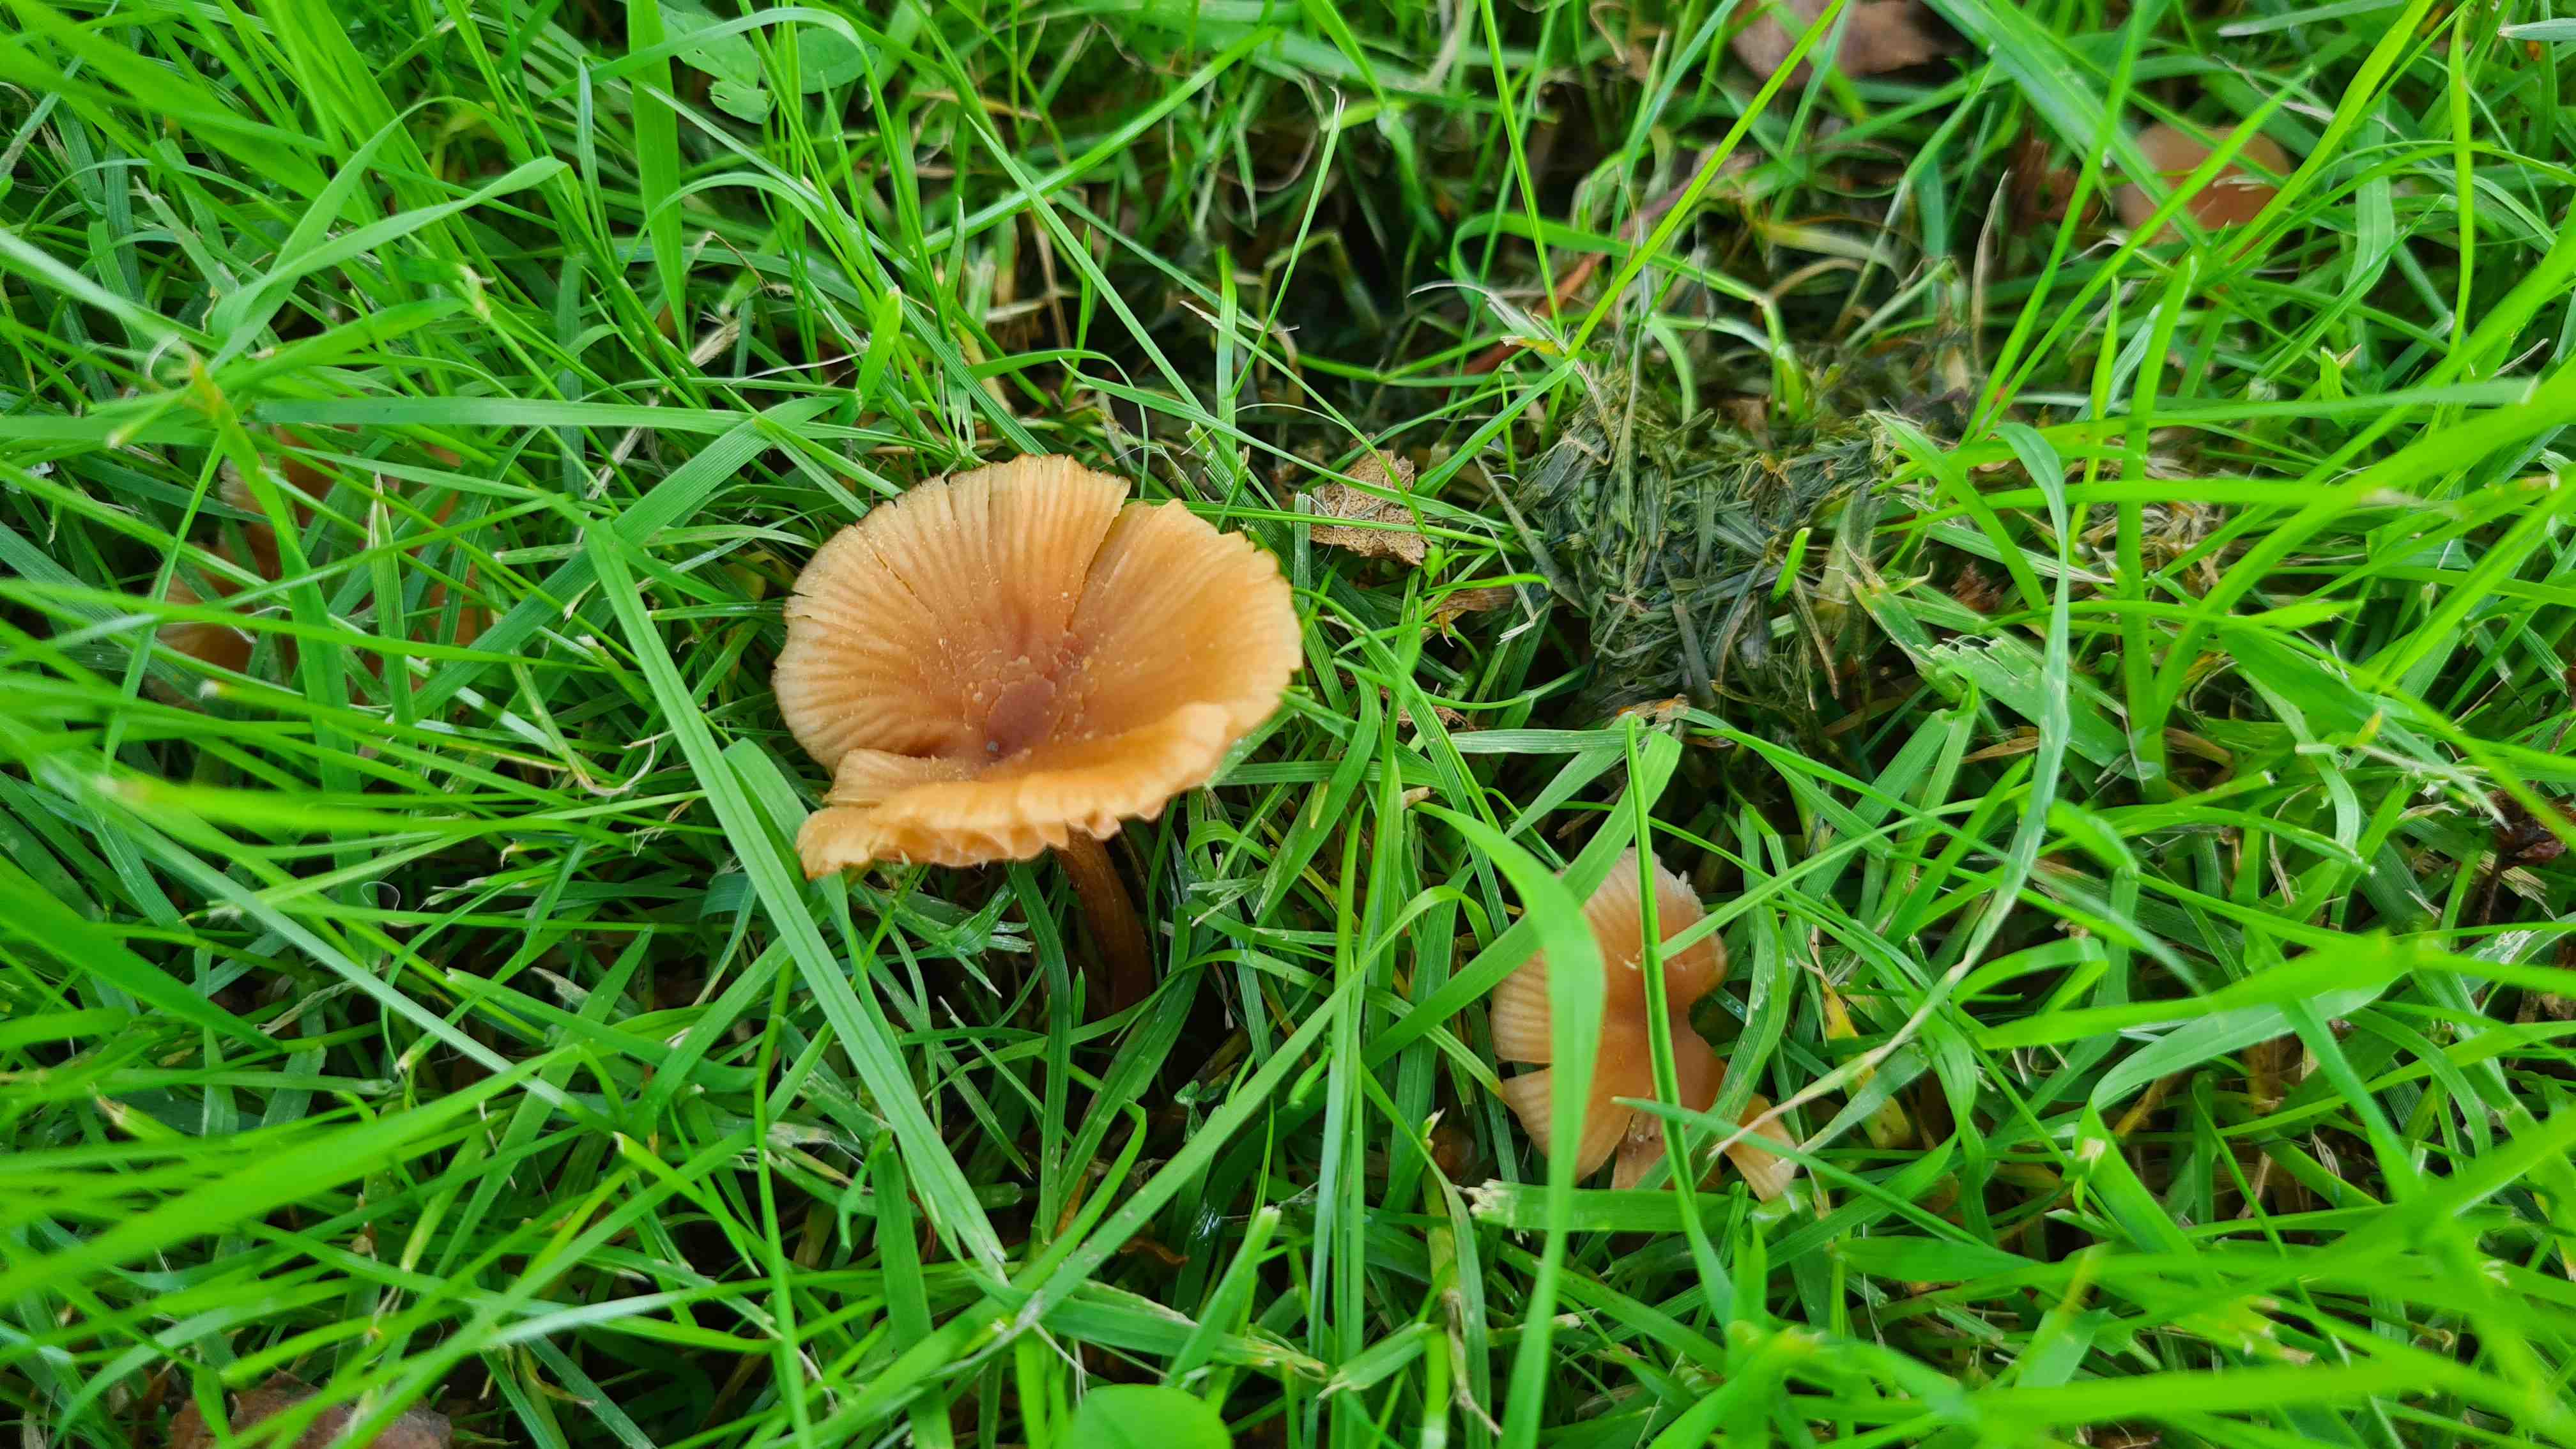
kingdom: Fungi
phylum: Basidiomycota
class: Agaricomycetes
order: Agaricales
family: Hydnangiaceae
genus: Laccaria
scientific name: Laccaria laccata
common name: rød ametysthat
